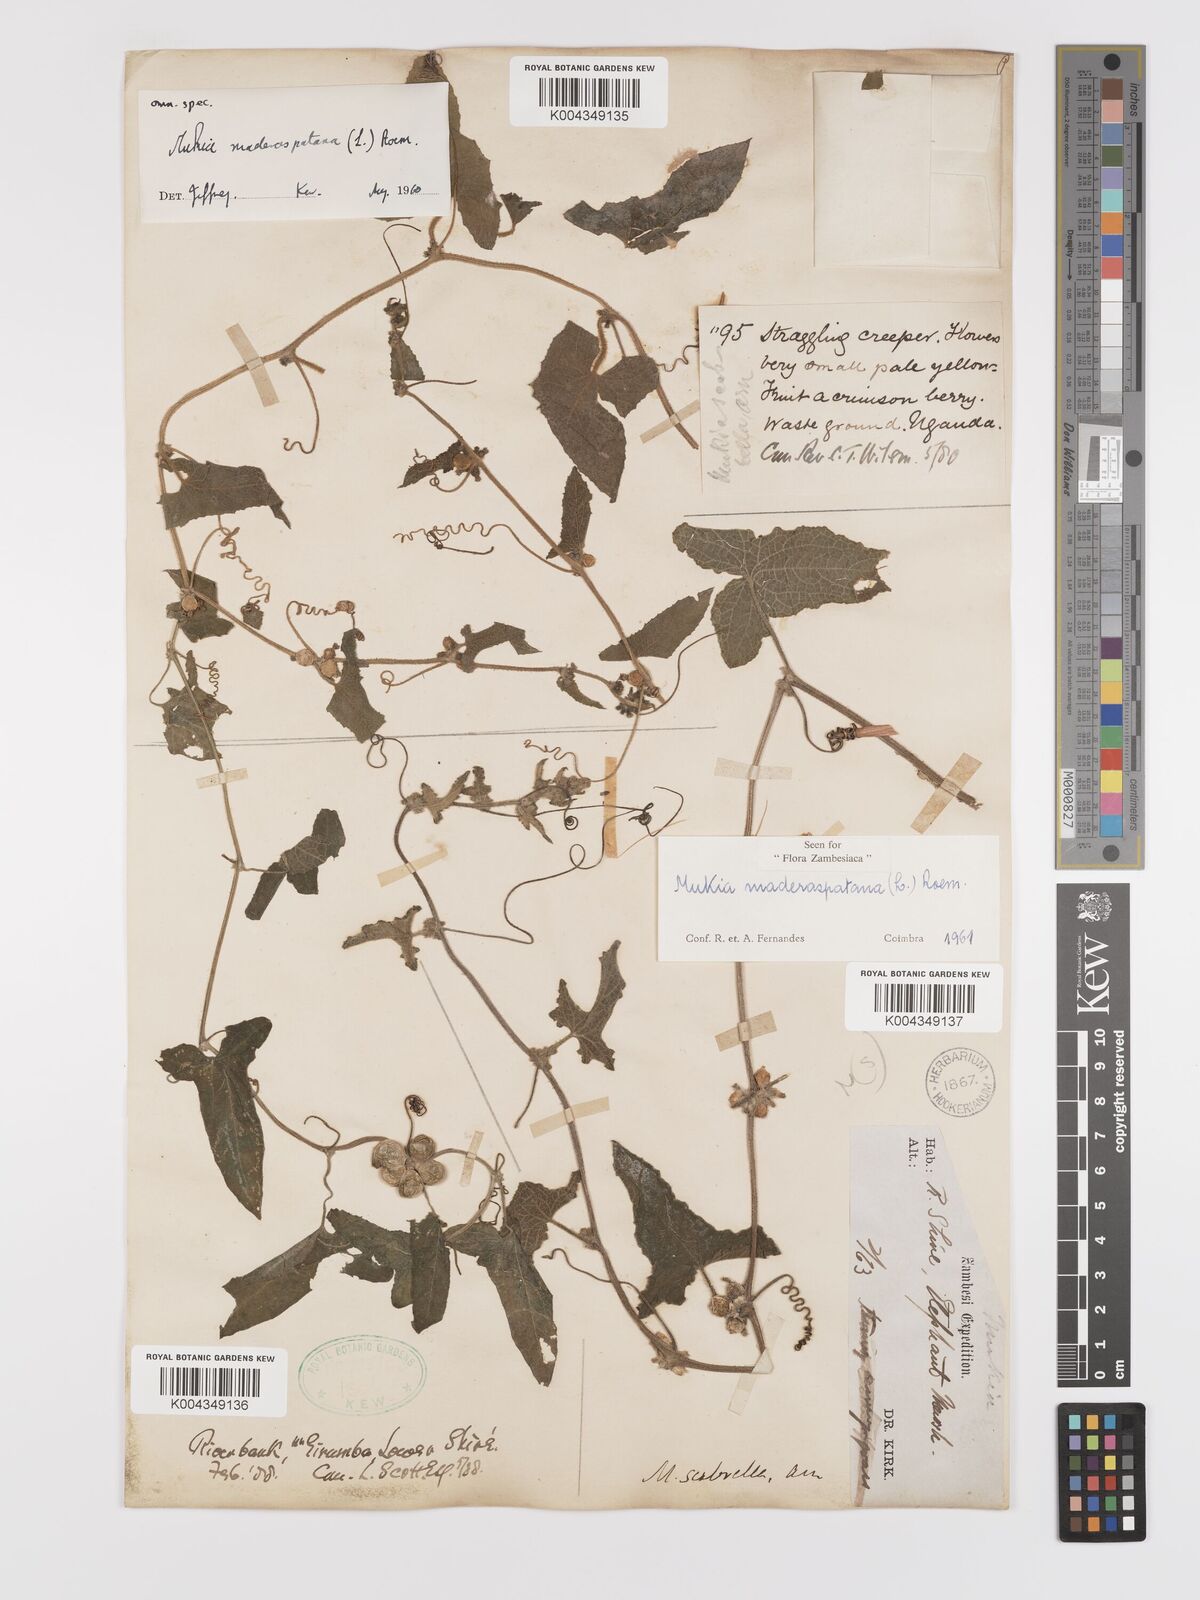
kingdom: Plantae
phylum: Tracheophyta
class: Magnoliopsida
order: Cucurbitales
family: Cucurbitaceae
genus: Cucumis
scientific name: Cucumis maderaspatanus
